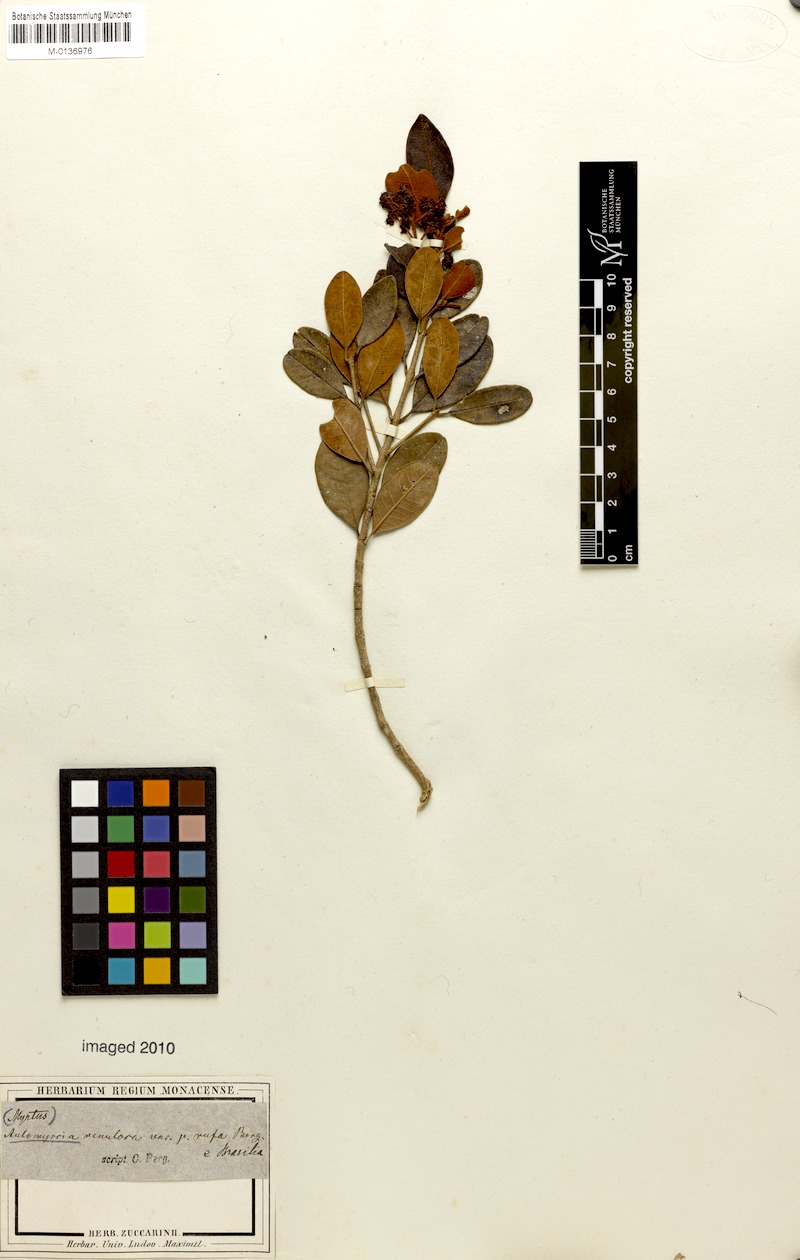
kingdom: Plantae
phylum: Tracheophyta
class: Magnoliopsida
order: Myrtales
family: Myrtaceae
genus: Myrcia
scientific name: Myrcia venulosa
